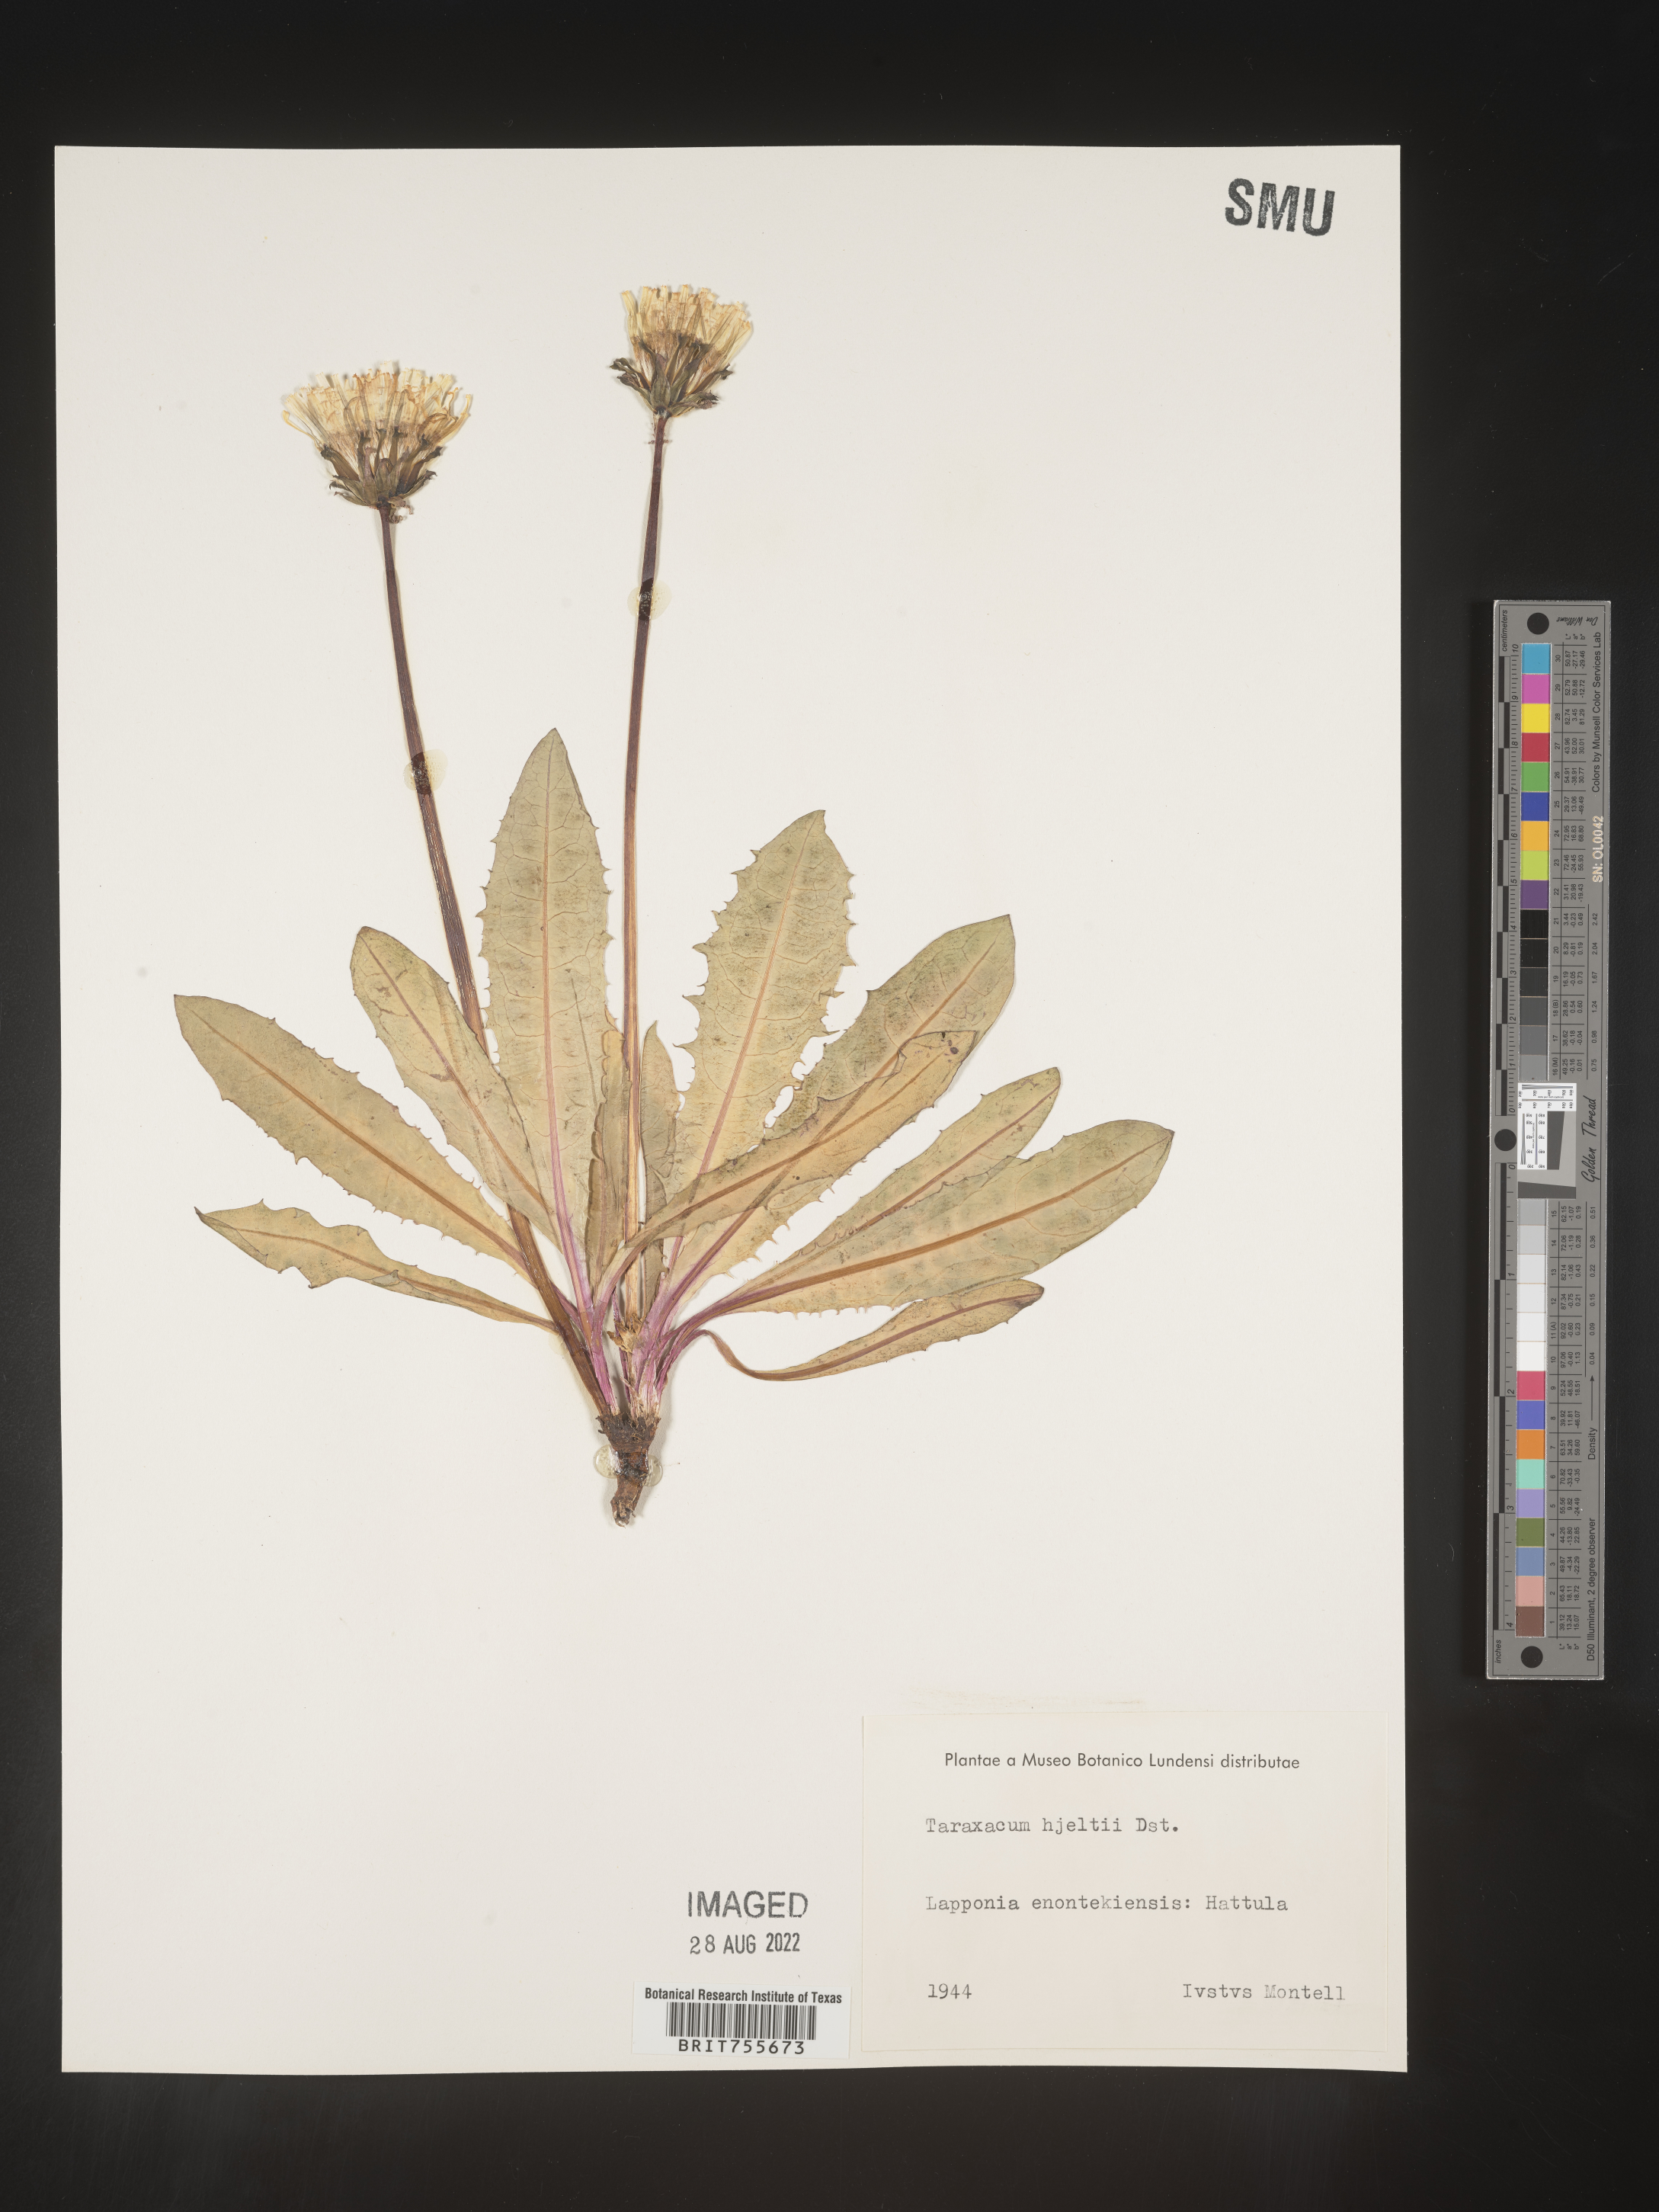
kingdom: Plantae
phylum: Tracheophyta
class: Magnoliopsida
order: Asterales
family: Asteraceae
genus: Taraxacum
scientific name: Taraxacum
